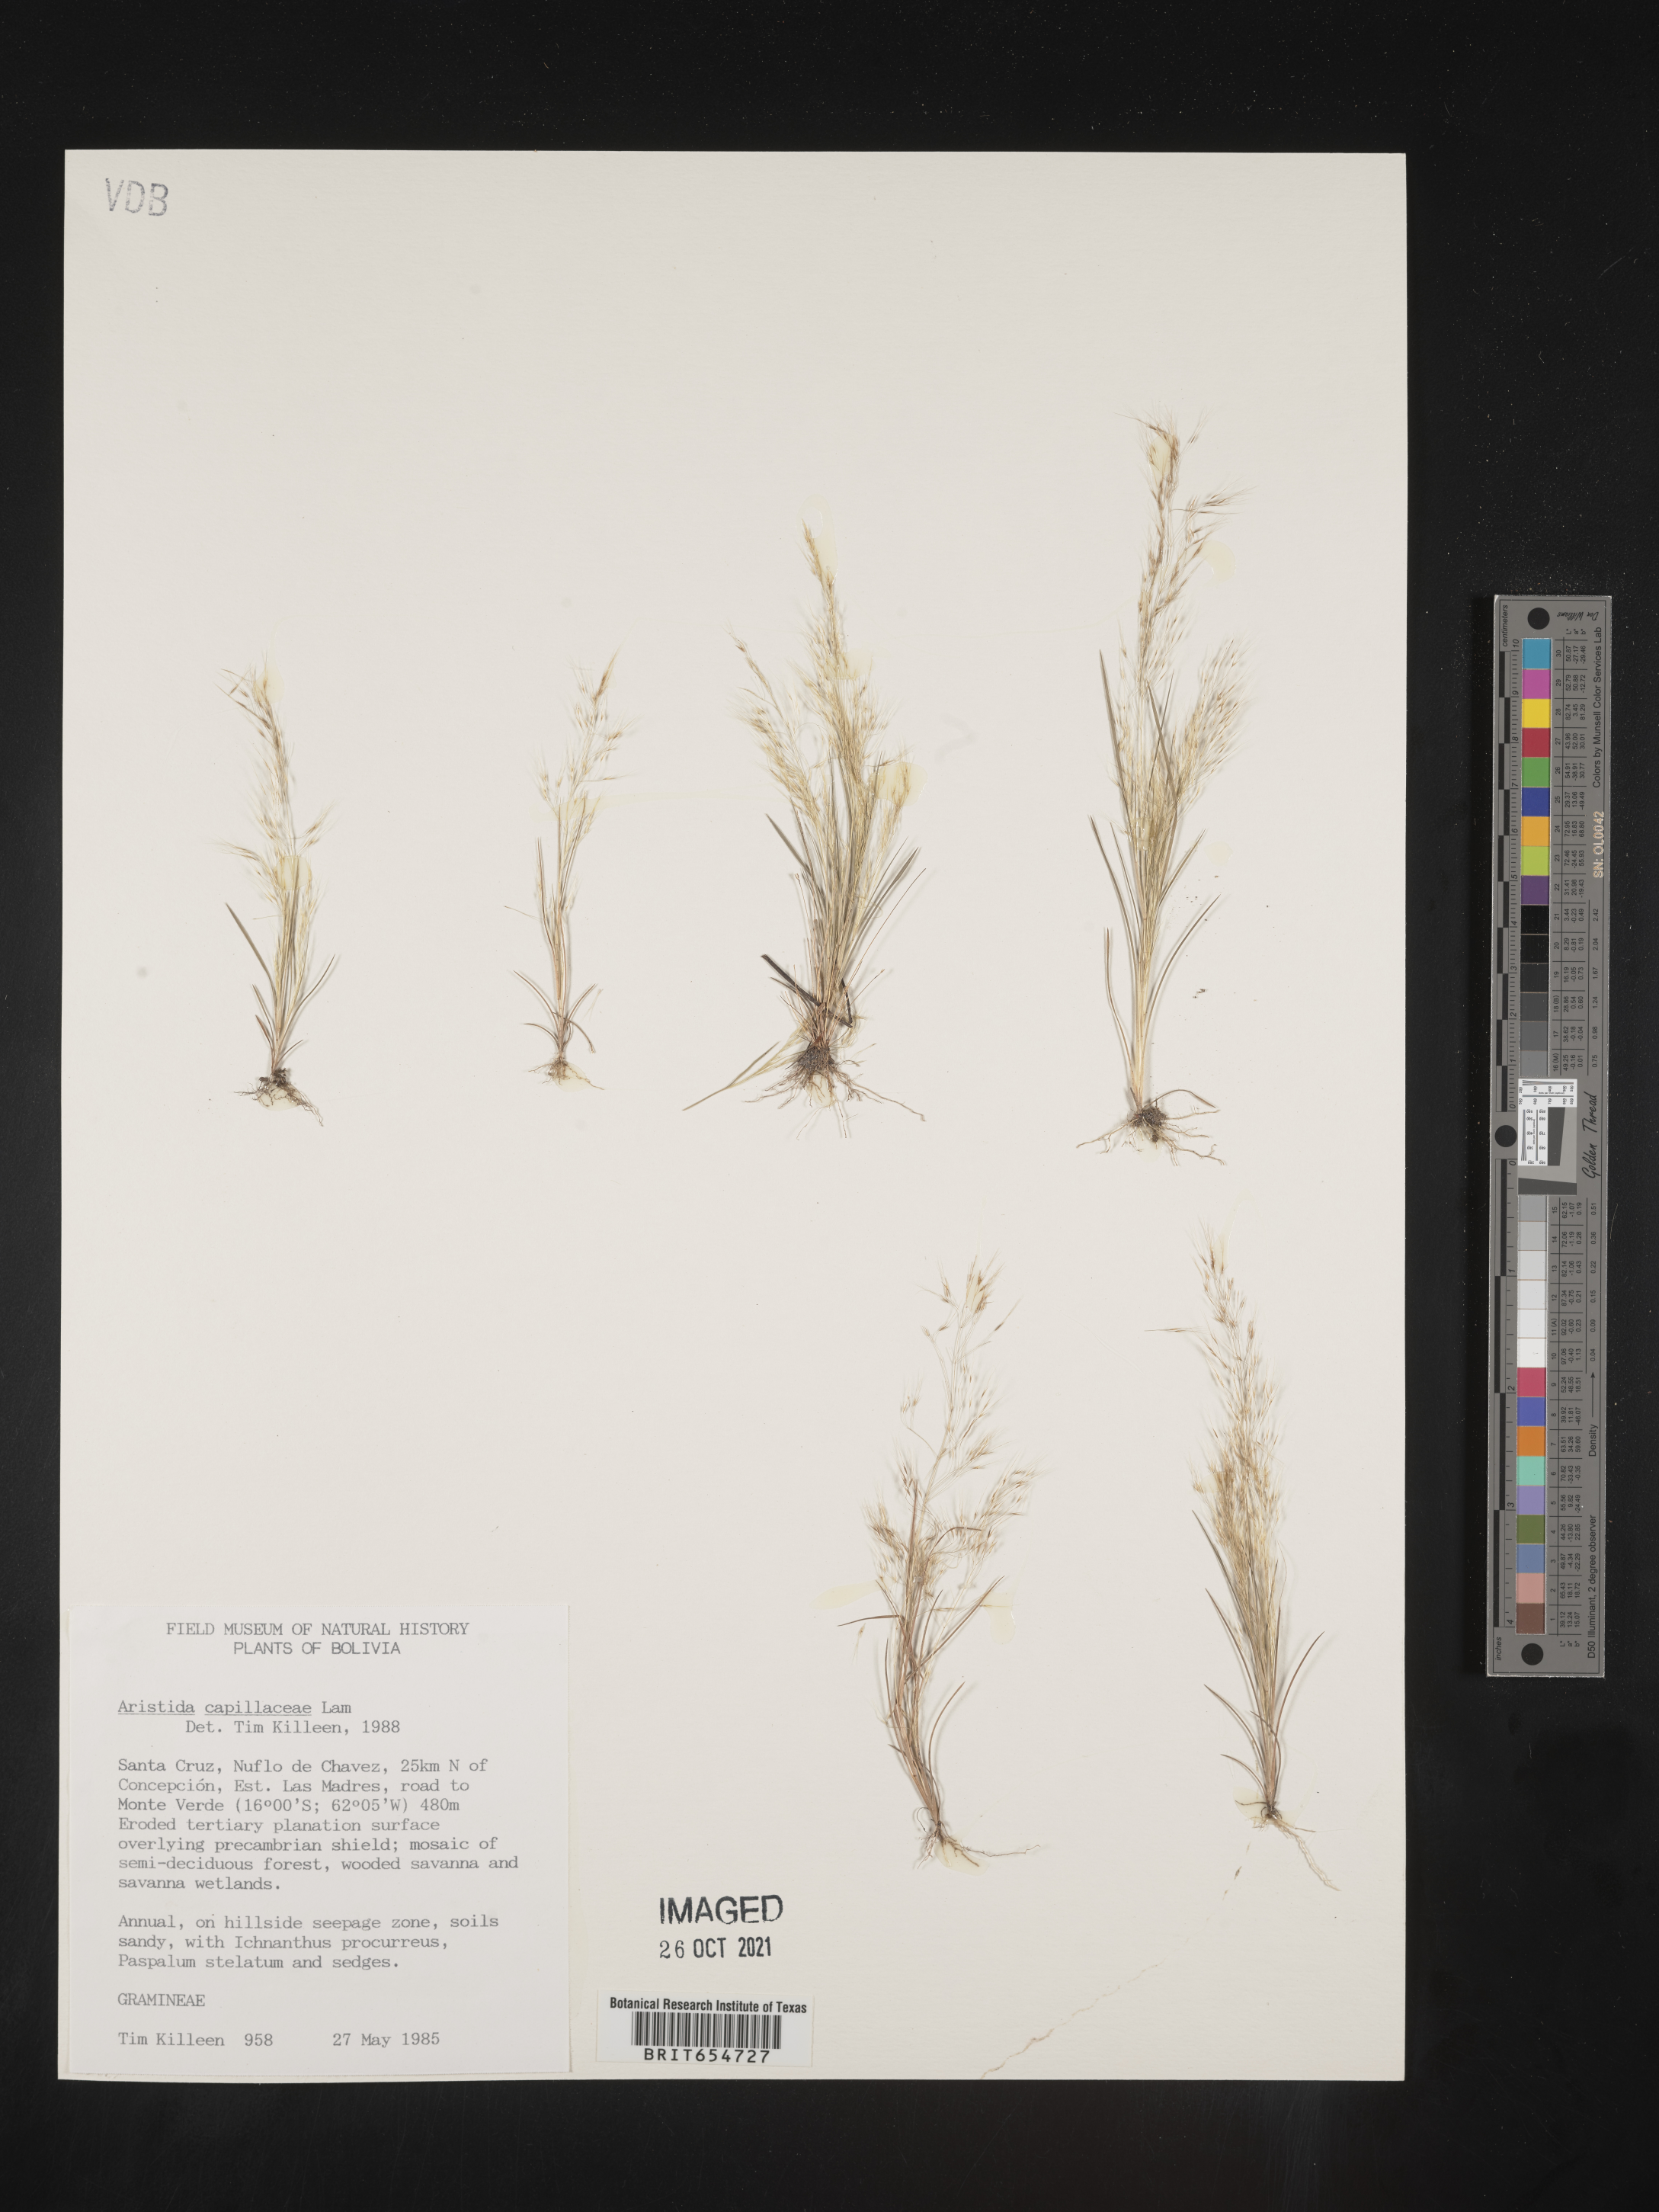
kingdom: Plantae
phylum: Tracheophyta
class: Liliopsida
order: Poales
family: Poaceae
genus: Aristida
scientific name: Aristida
